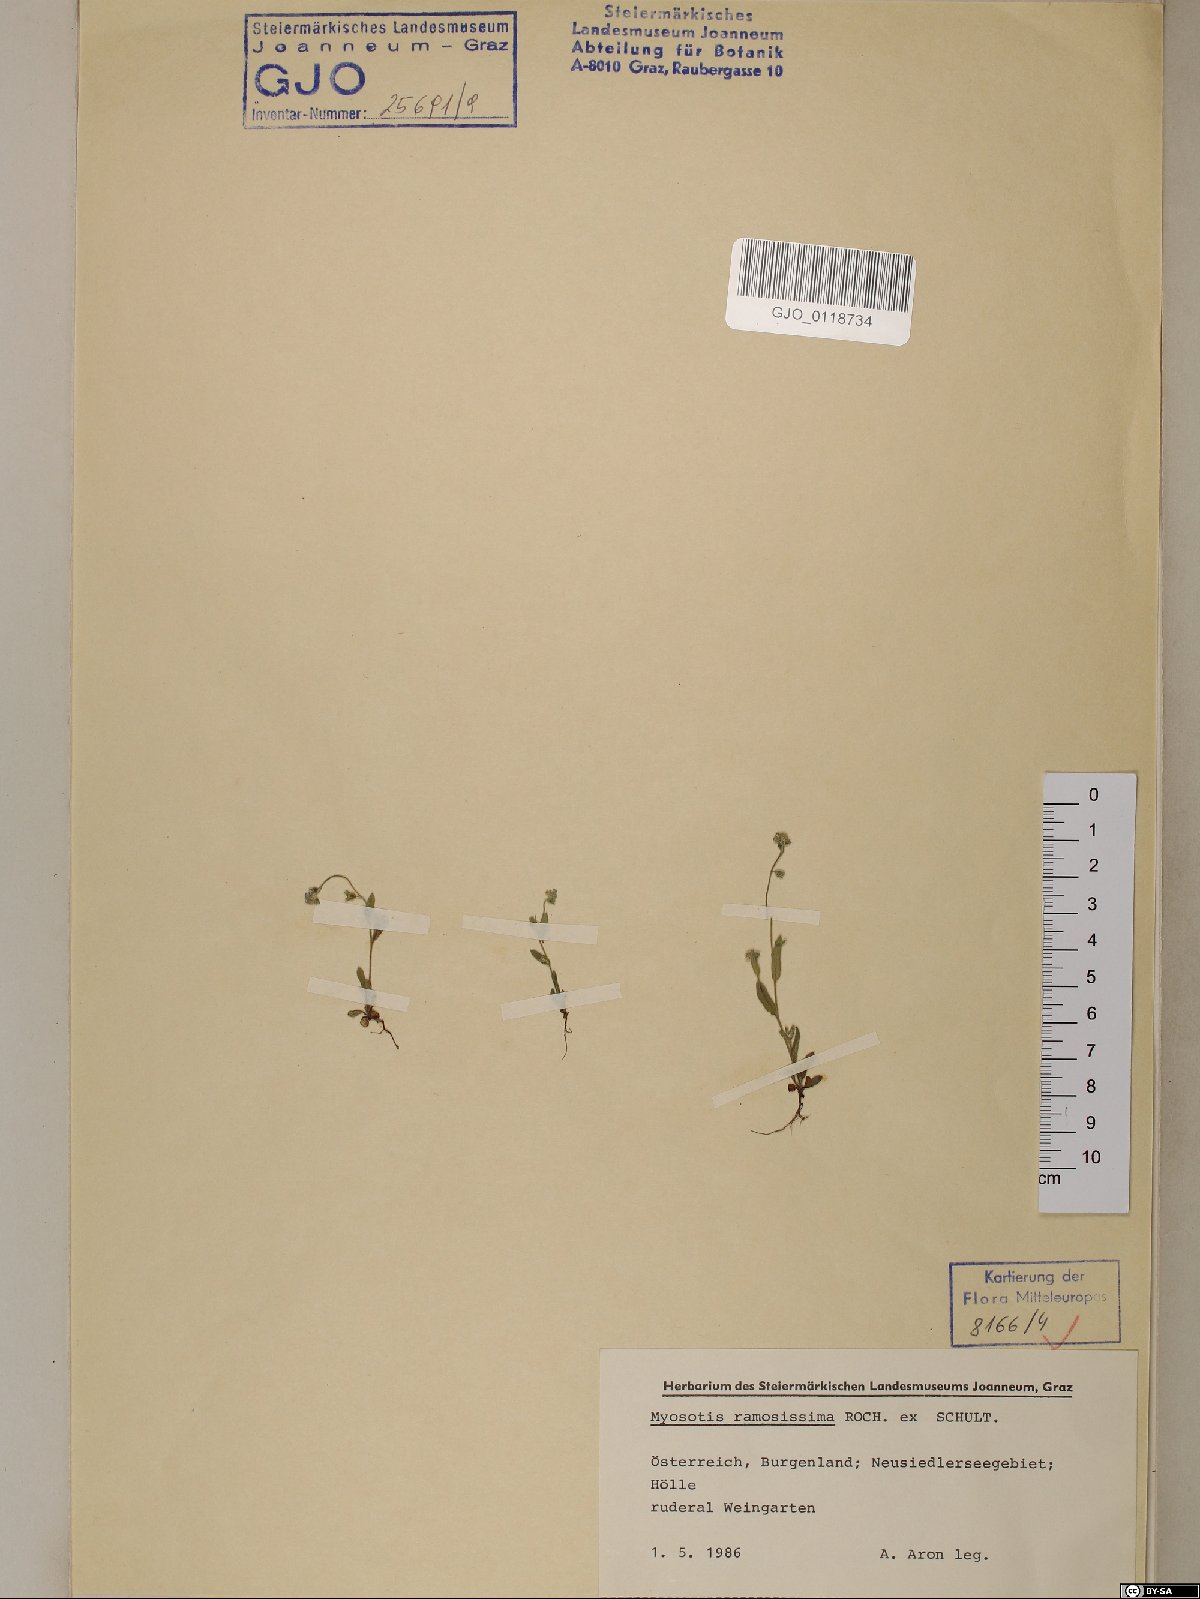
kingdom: Plantae
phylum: Tracheophyta
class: Magnoliopsida
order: Boraginales
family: Boraginaceae
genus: Myosotis
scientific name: Myosotis ramosissima
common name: Early forget-me-not
